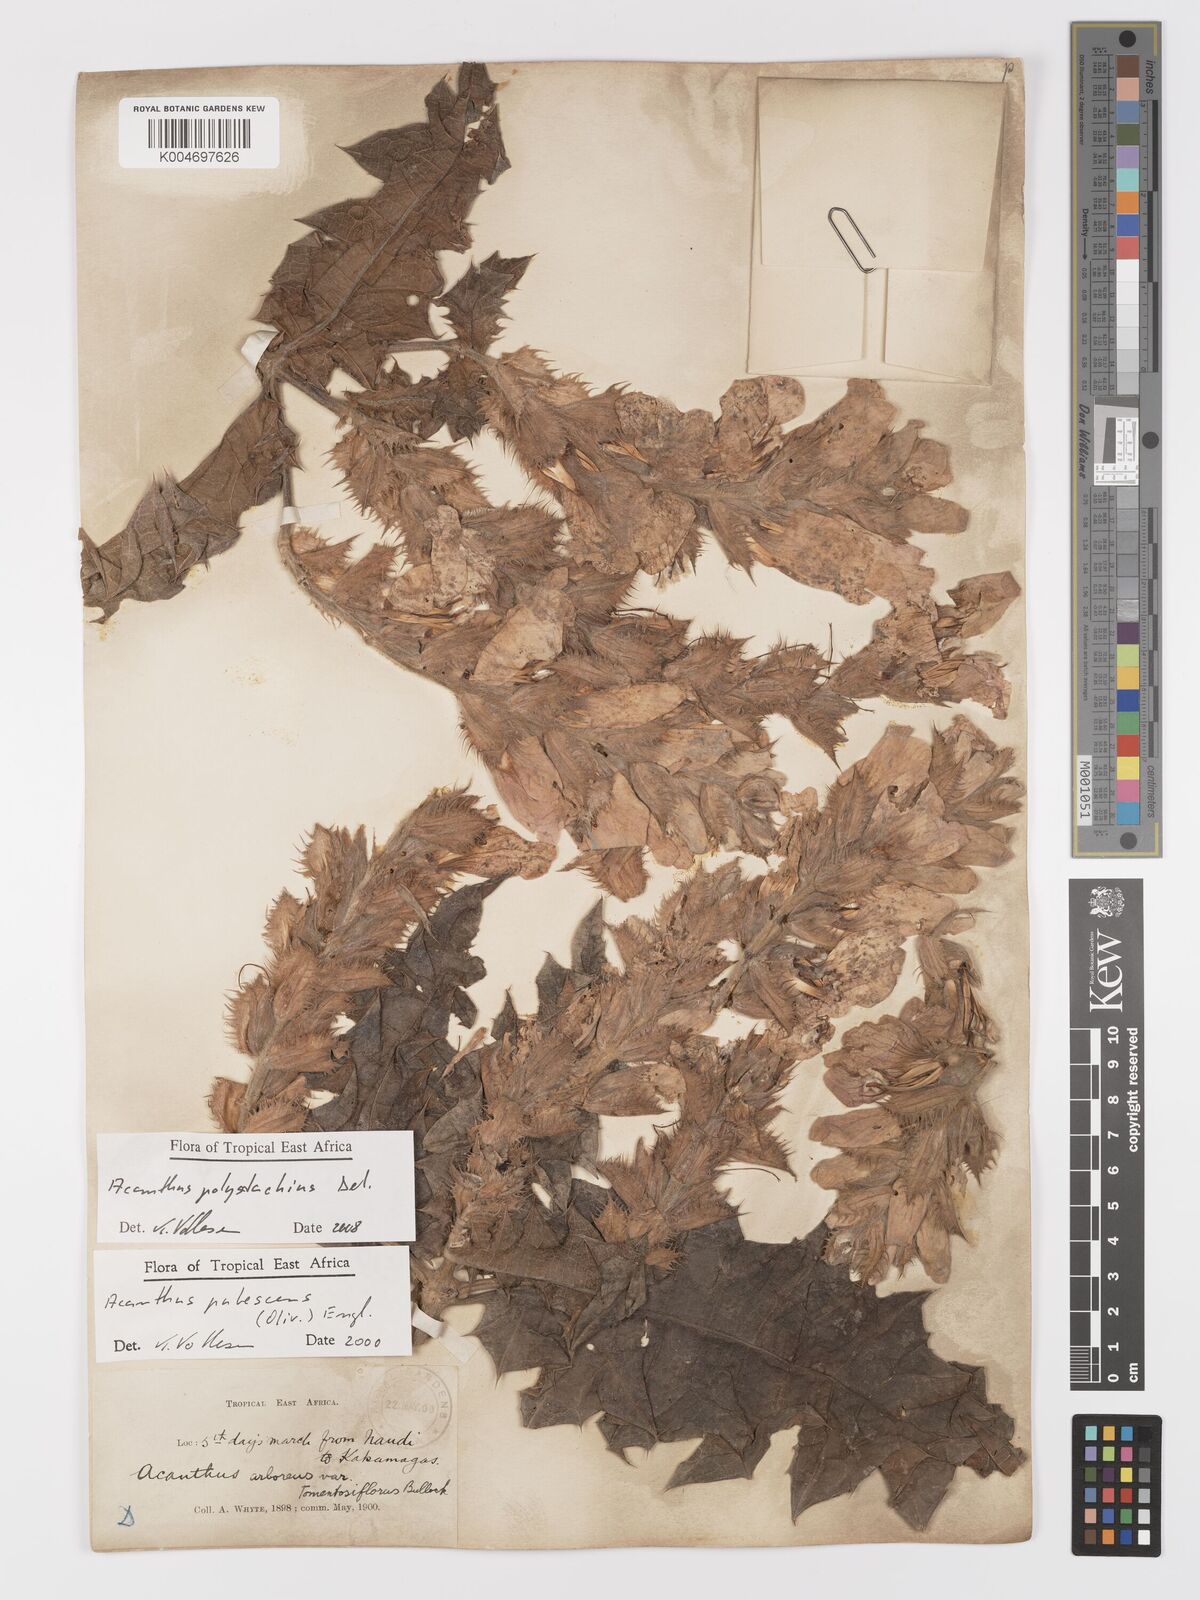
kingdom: Plantae
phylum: Tracheophyta
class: Magnoliopsida
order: Lamiales
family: Acanthaceae
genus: Acanthus
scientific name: Acanthus polystachyus
